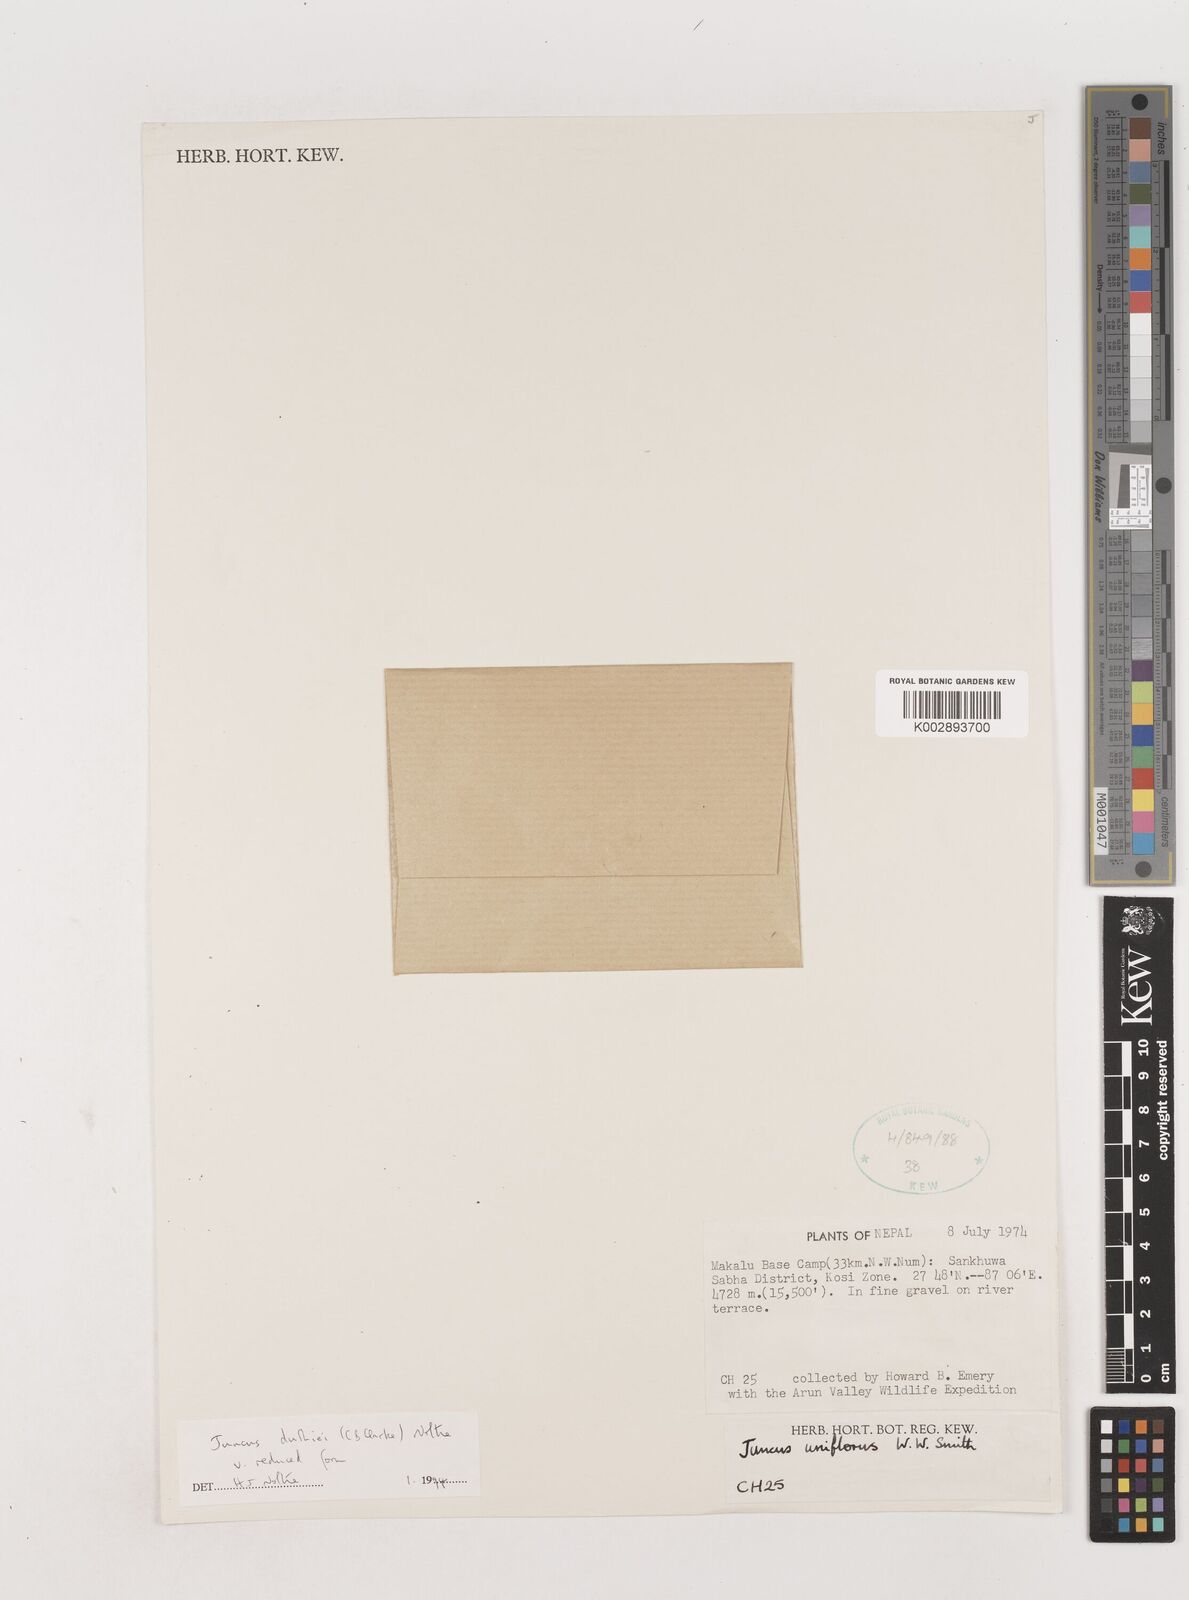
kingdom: Plantae
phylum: Tracheophyta
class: Liliopsida
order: Poales
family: Juncaceae
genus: Juncus
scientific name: Juncus duthiei
